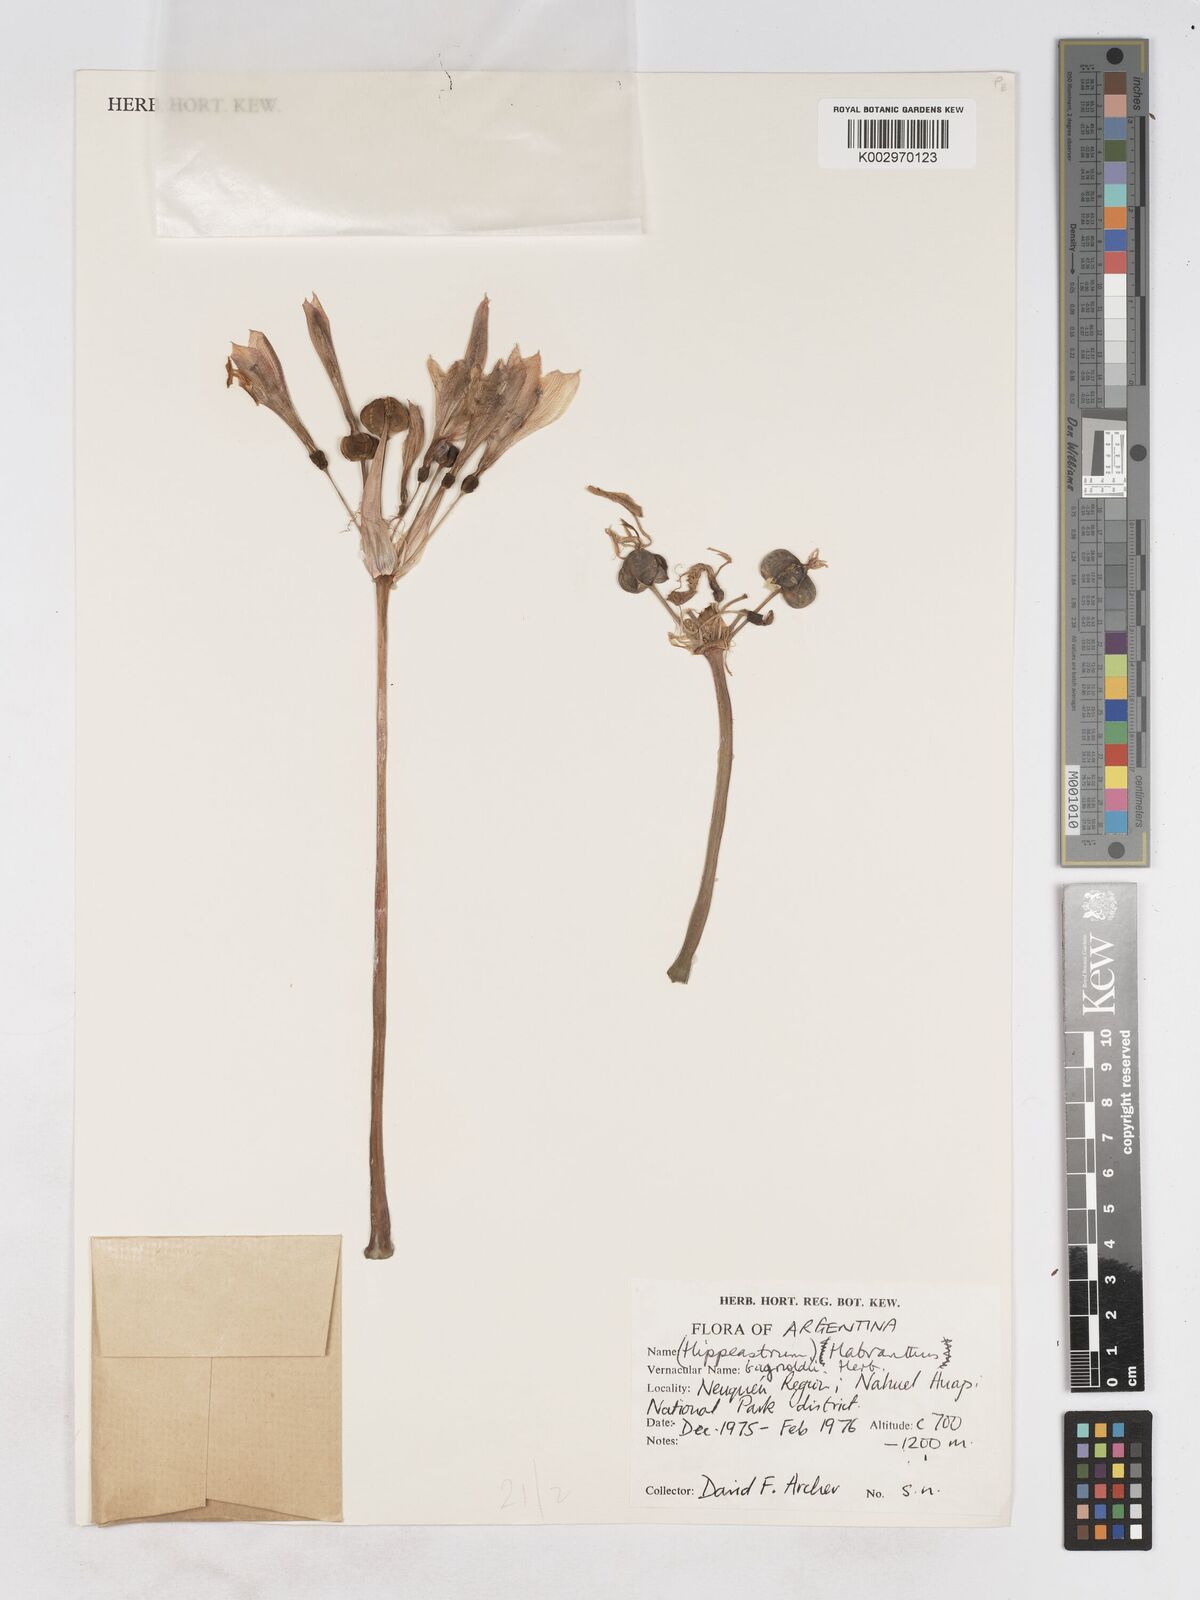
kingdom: Plantae
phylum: Tracheophyta
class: Liliopsida
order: Asparagales
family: Amaryllidaceae
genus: Zephyranthes
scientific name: Zephyranthes bagnoldii
